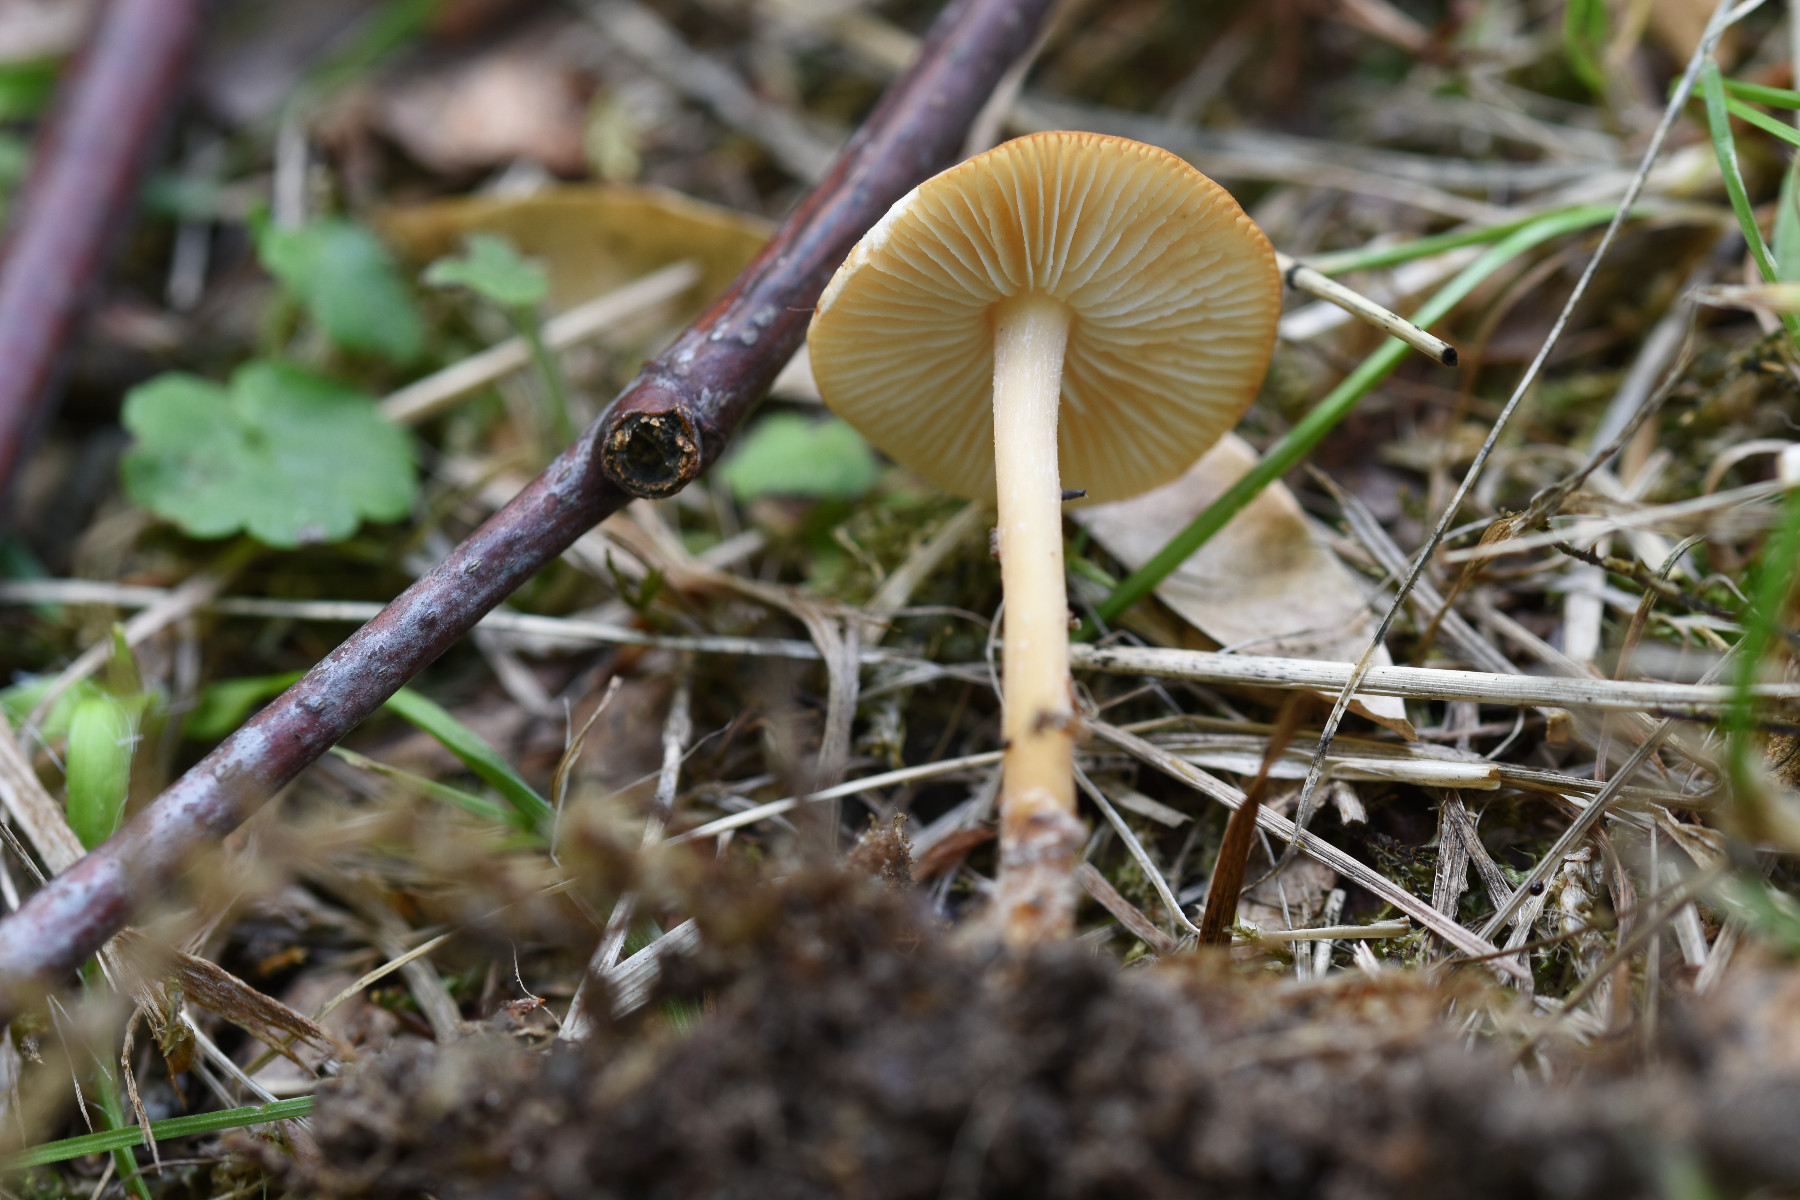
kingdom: Fungi
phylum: Basidiomycota
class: Agaricomycetes
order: Agaricales
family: Omphalotaceae
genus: Gymnopus
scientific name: Gymnopus dryophilus
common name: løv-fladhat
